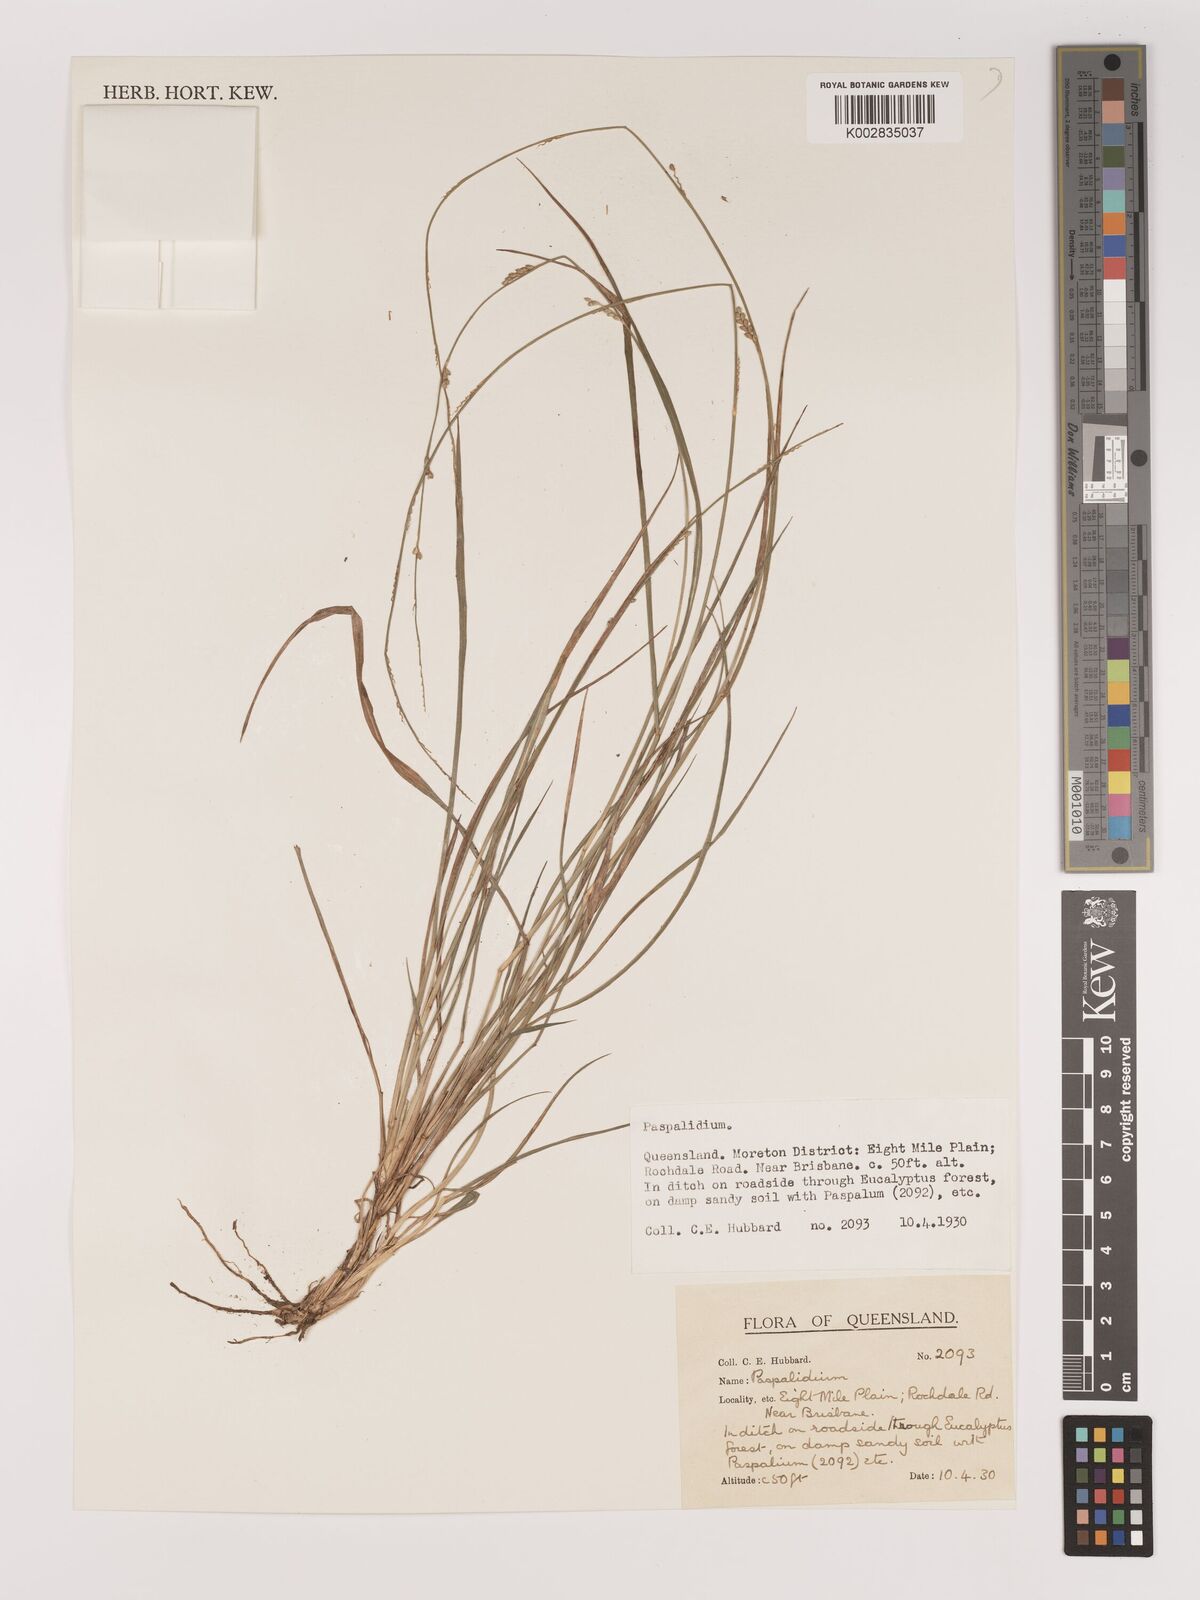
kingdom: Plantae
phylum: Tracheophyta
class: Liliopsida
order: Poales
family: Poaceae
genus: Setaria
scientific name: Setaria
